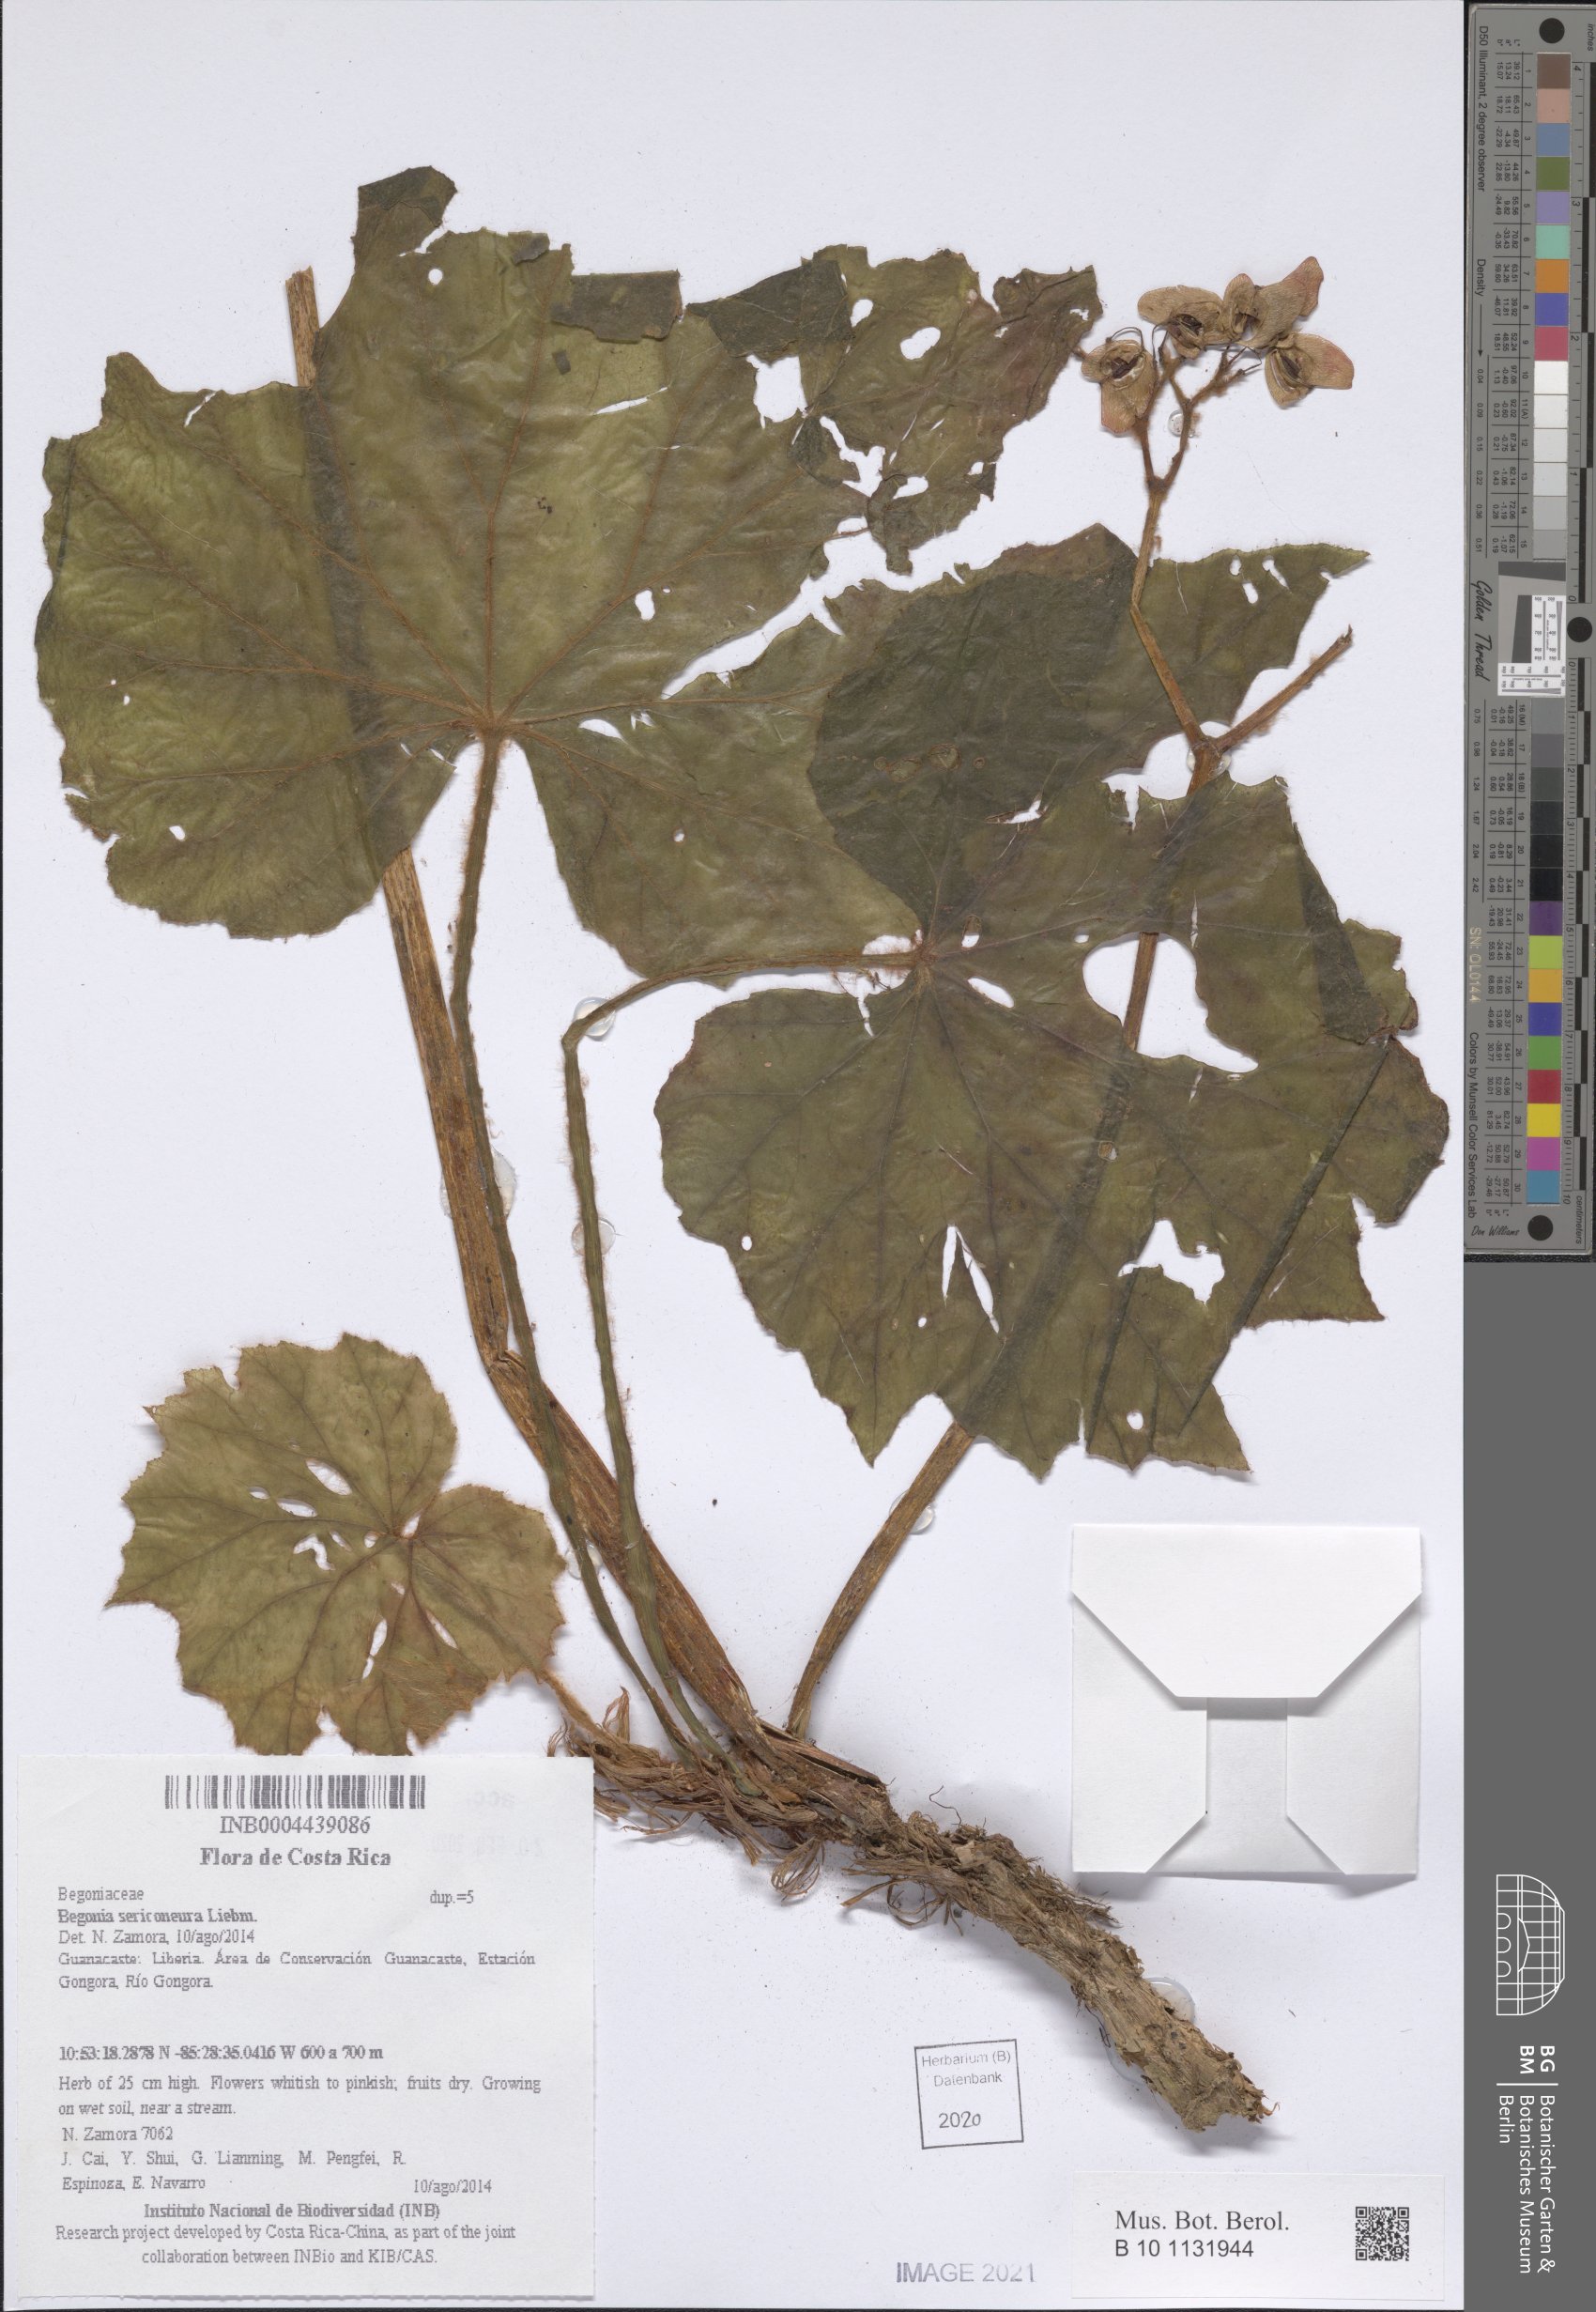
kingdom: Plantae
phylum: Tracheophyta
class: Magnoliopsida
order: Cucurbitales
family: Begoniaceae
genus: Begonia
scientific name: Begonia sericoneura
